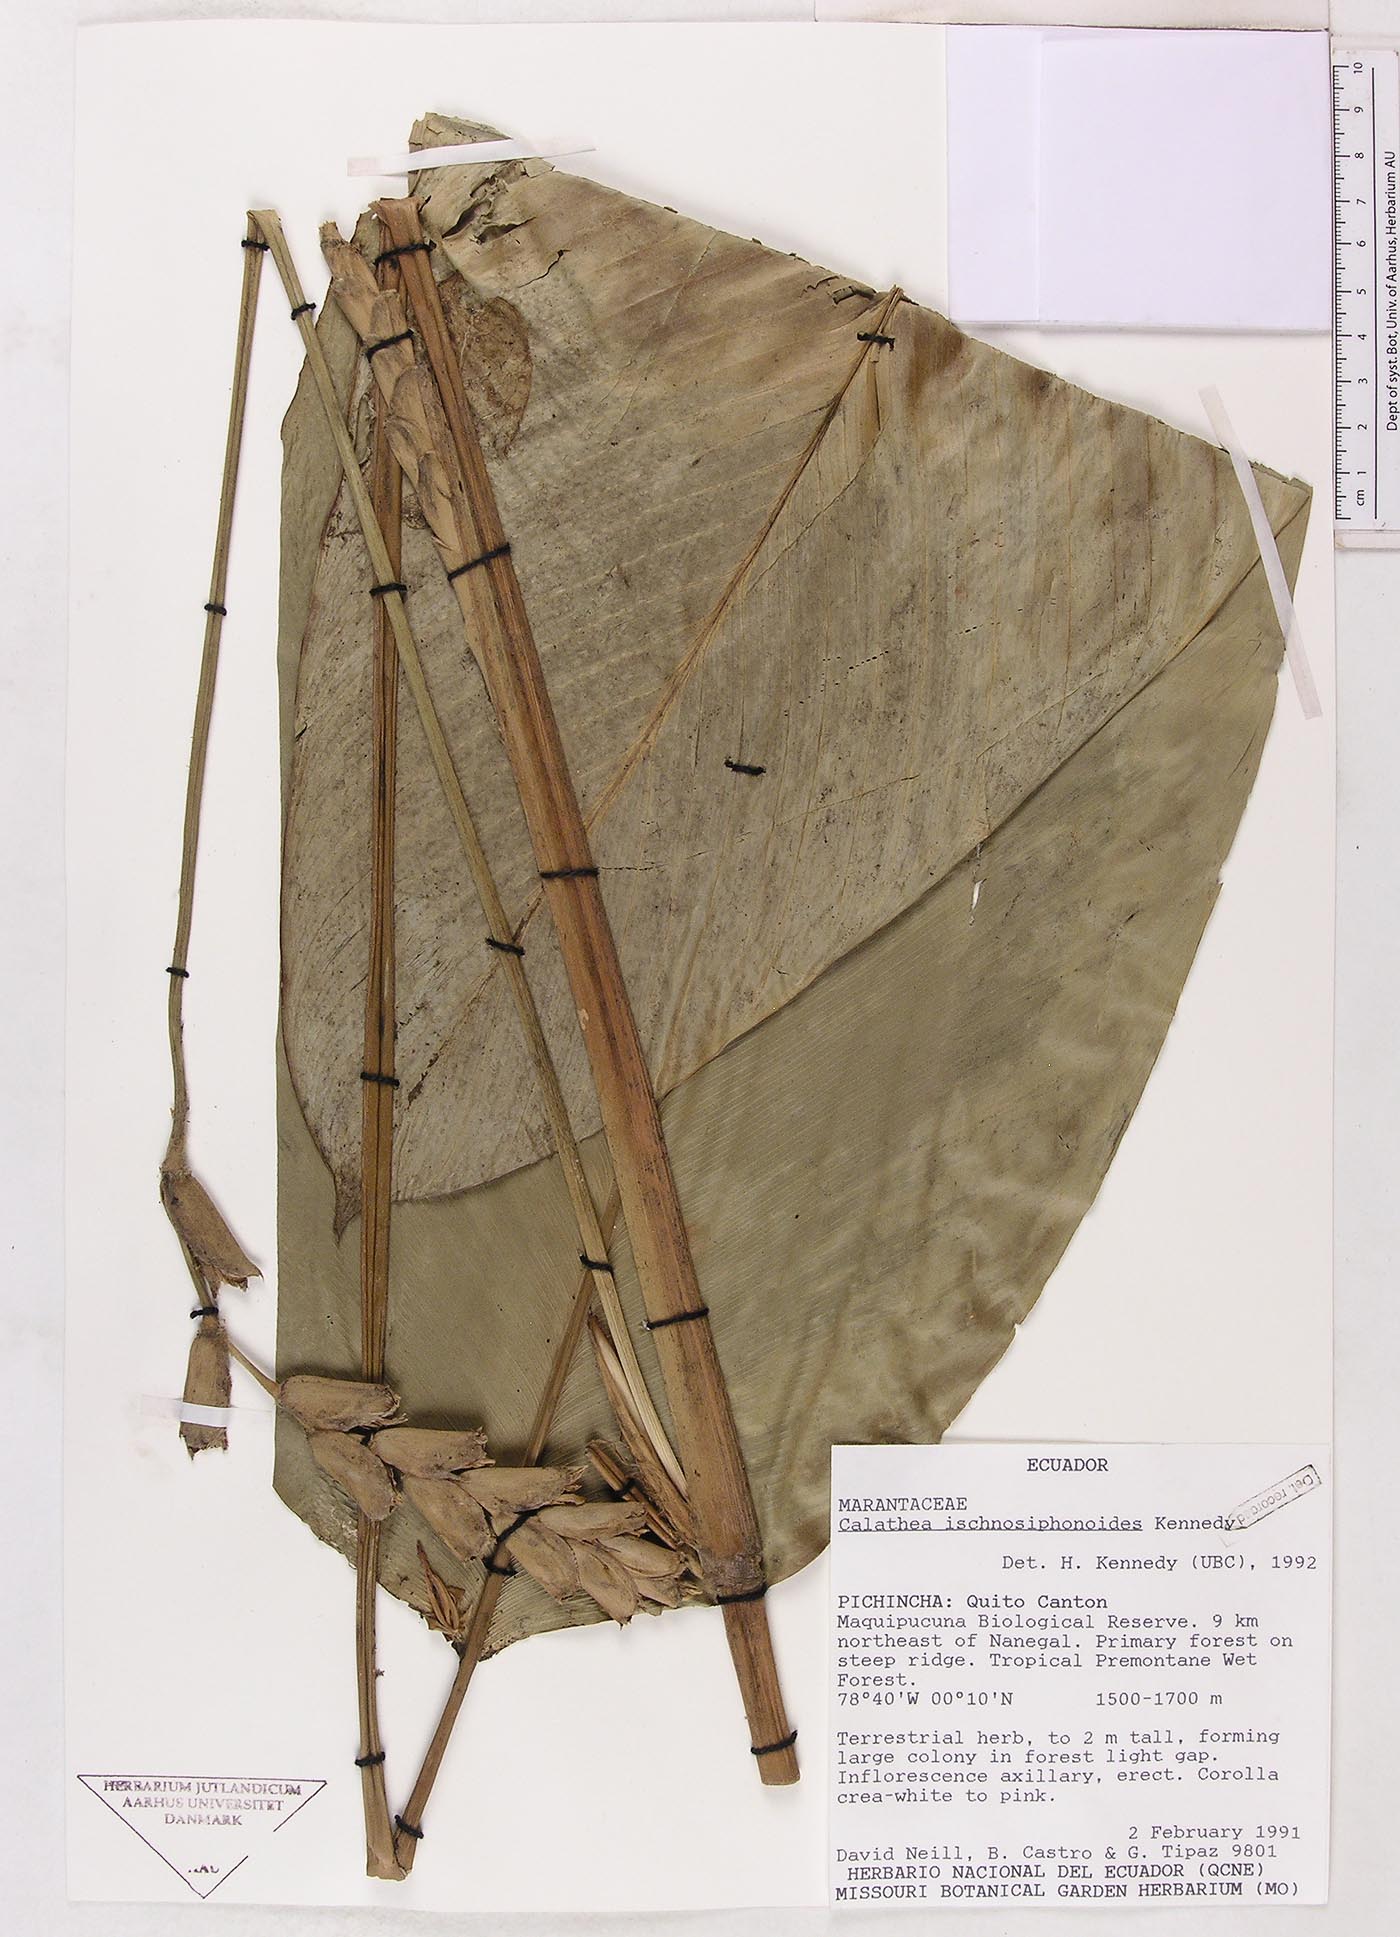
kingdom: Plantae
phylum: Tracheophyta
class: Liliopsida
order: Zingiberales
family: Marantaceae
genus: Calathea
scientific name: Calathea ischnosiphonoides
